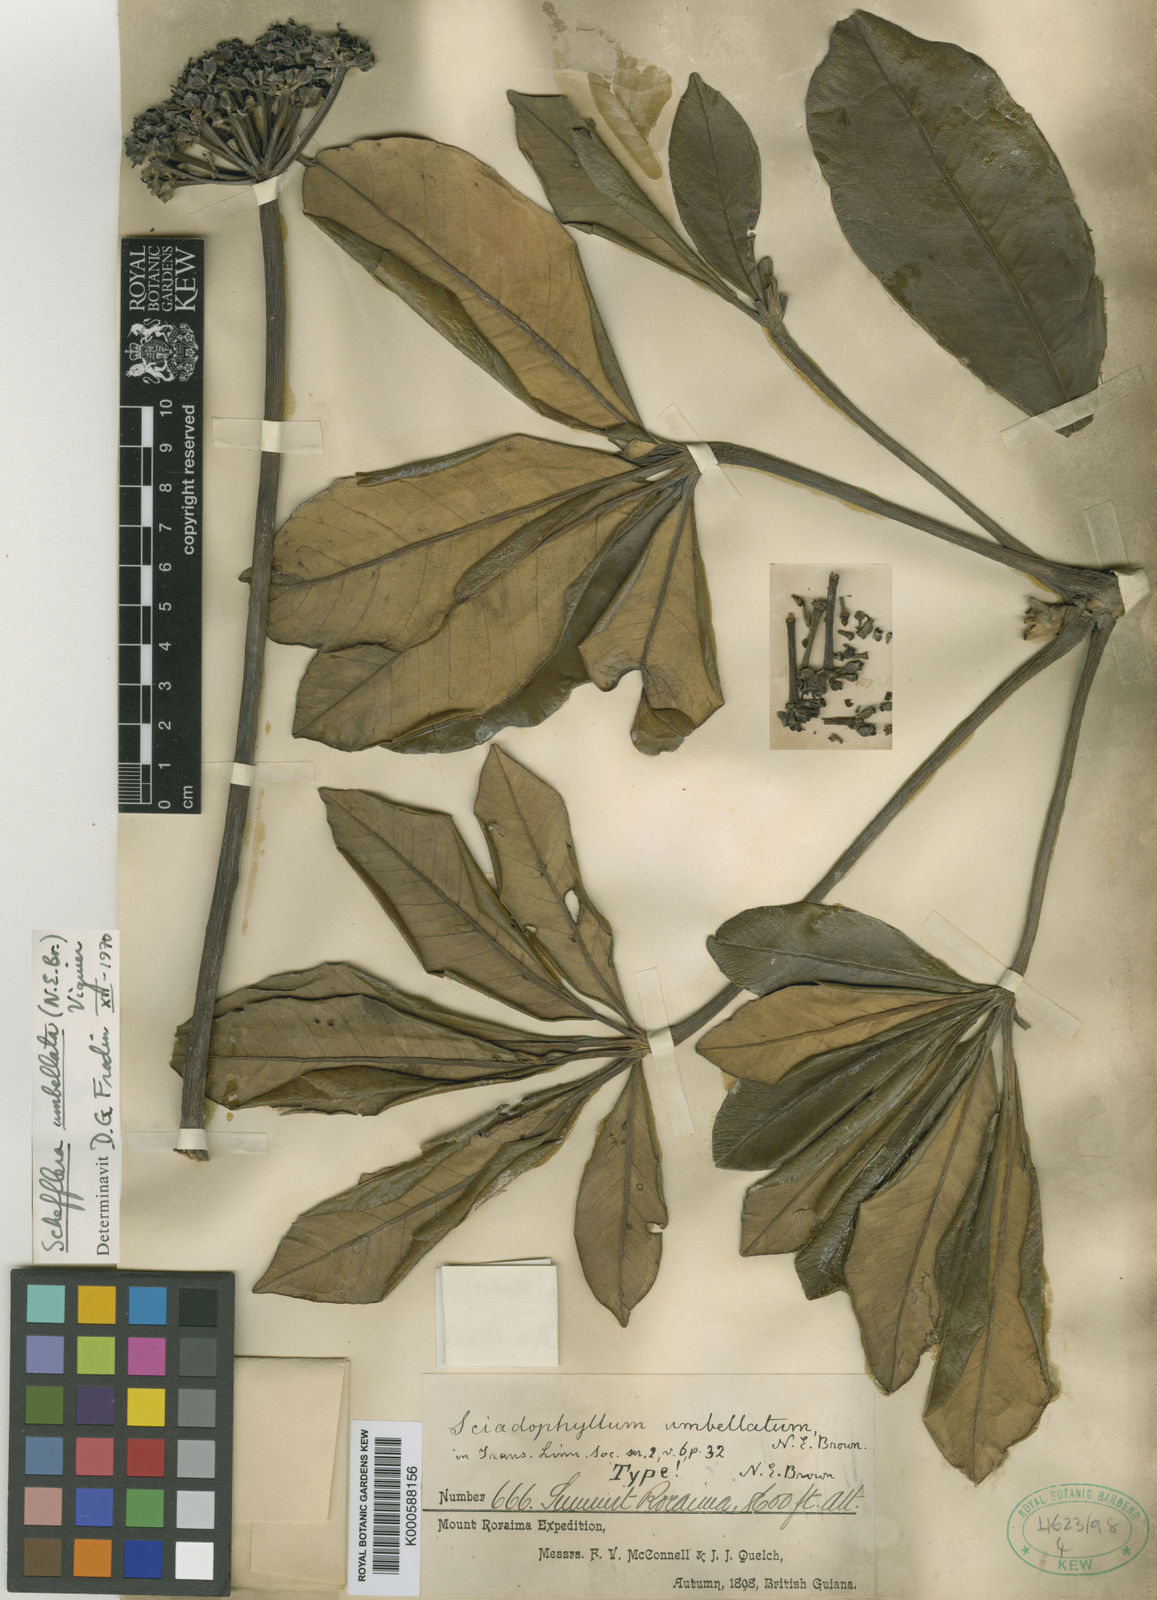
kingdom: Plantae
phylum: Tracheophyta
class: Magnoliopsida
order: Apiales
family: Araliaceae
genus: Crepinella
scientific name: Crepinella
